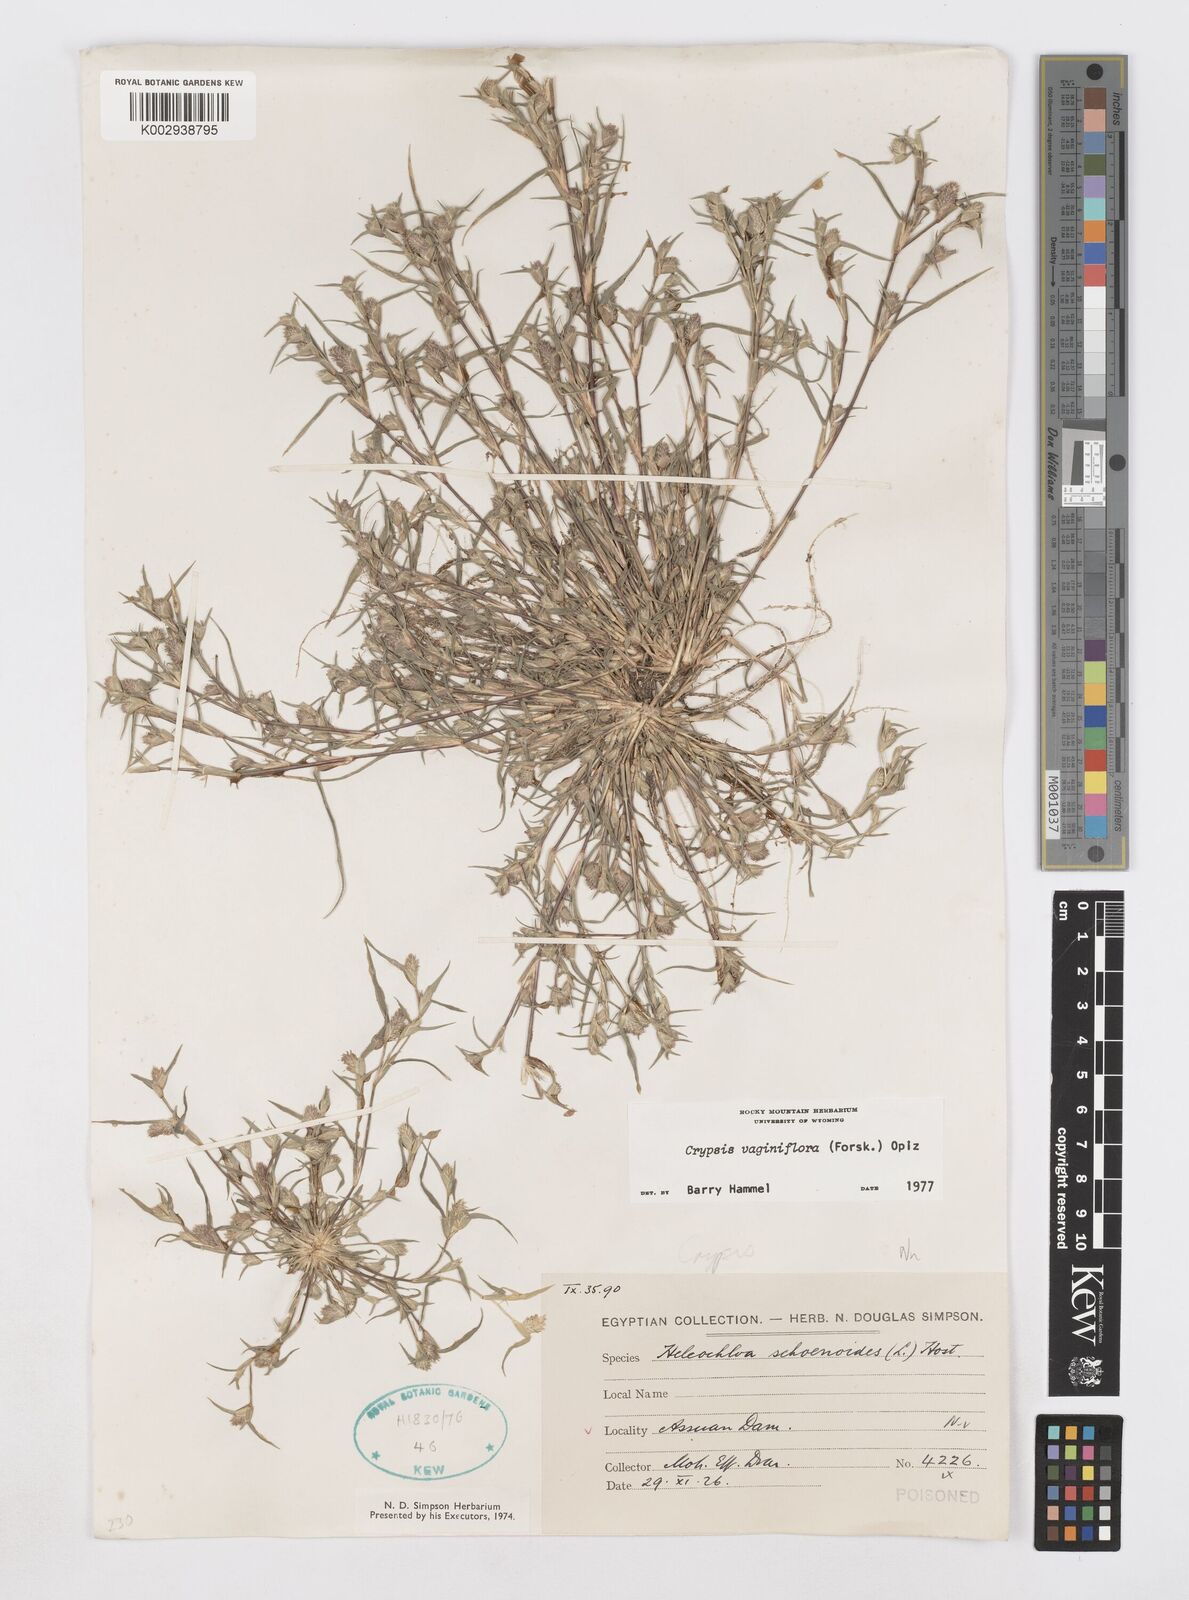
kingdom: Plantae
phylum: Tracheophyta
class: Liliopsida
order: Poales
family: Poaceae
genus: Sporobolus
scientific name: Sporobolus niliacus
